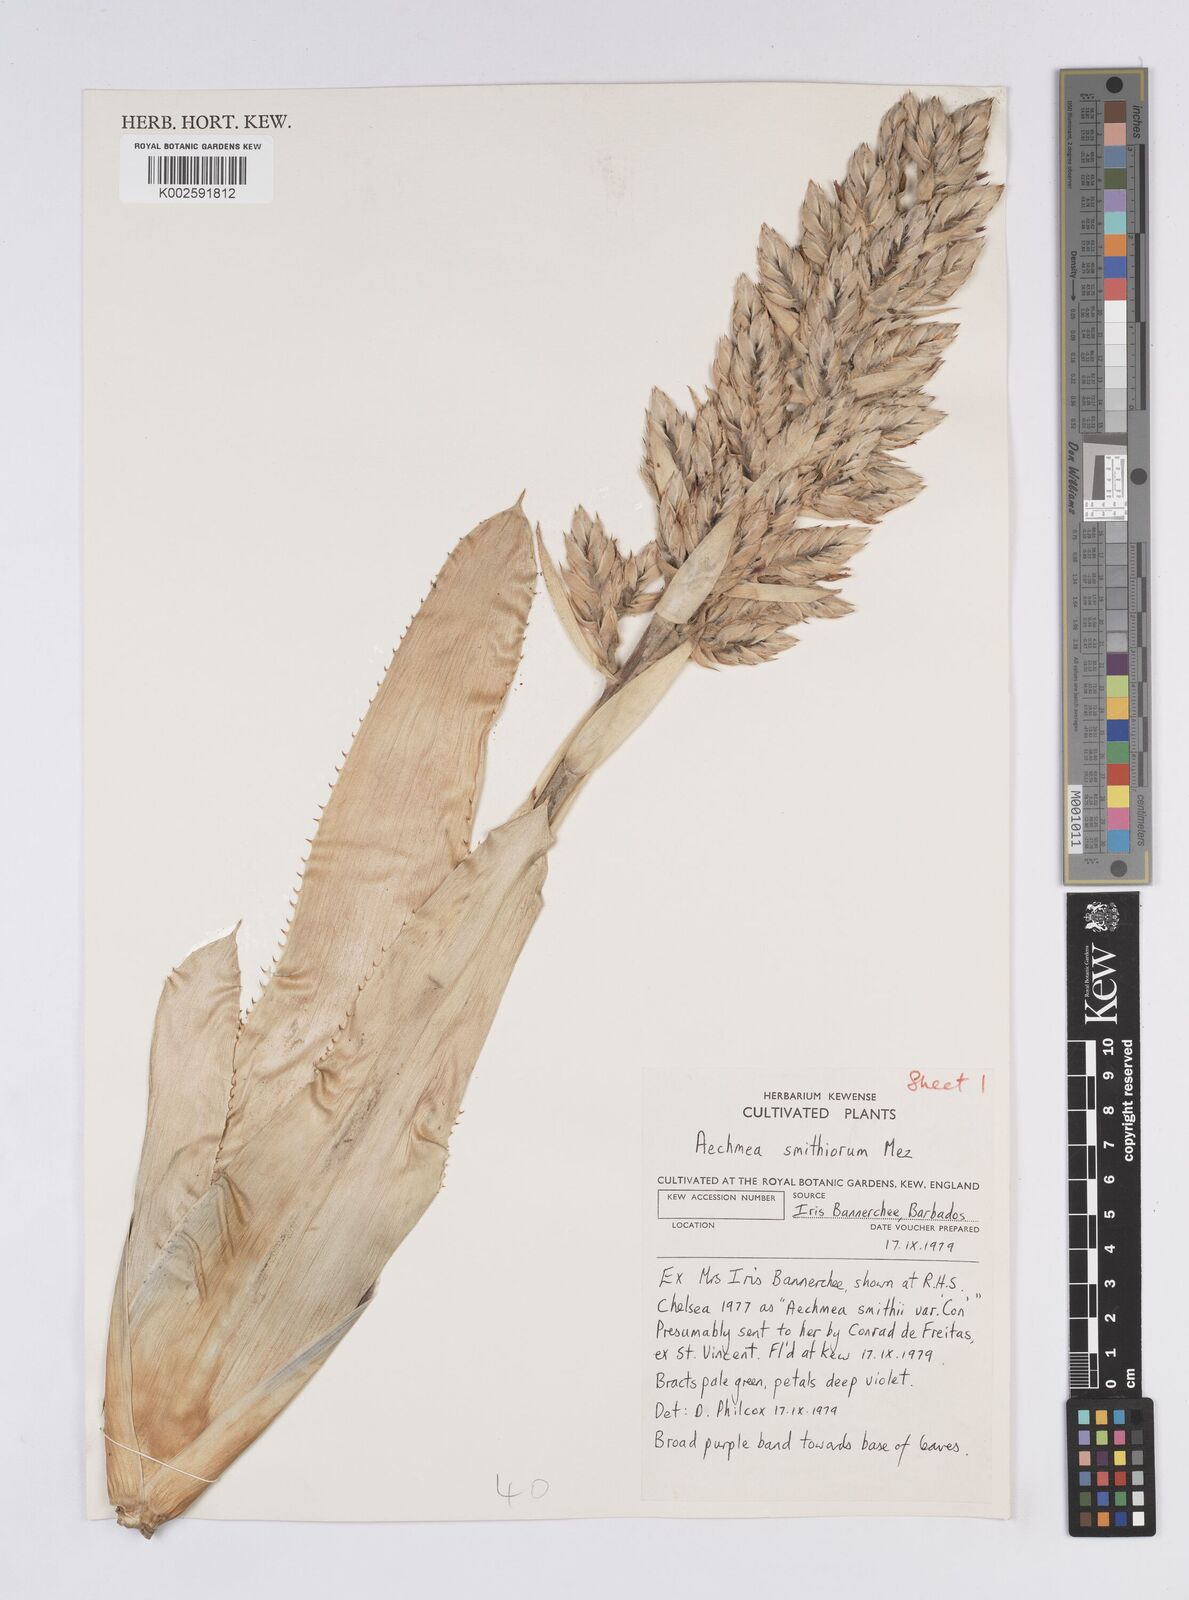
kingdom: Plantae
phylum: Tracheophyta
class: Liliopsida
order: Poales
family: Bromeliaceae
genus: Aechmea
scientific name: Aechmea smithiorum
